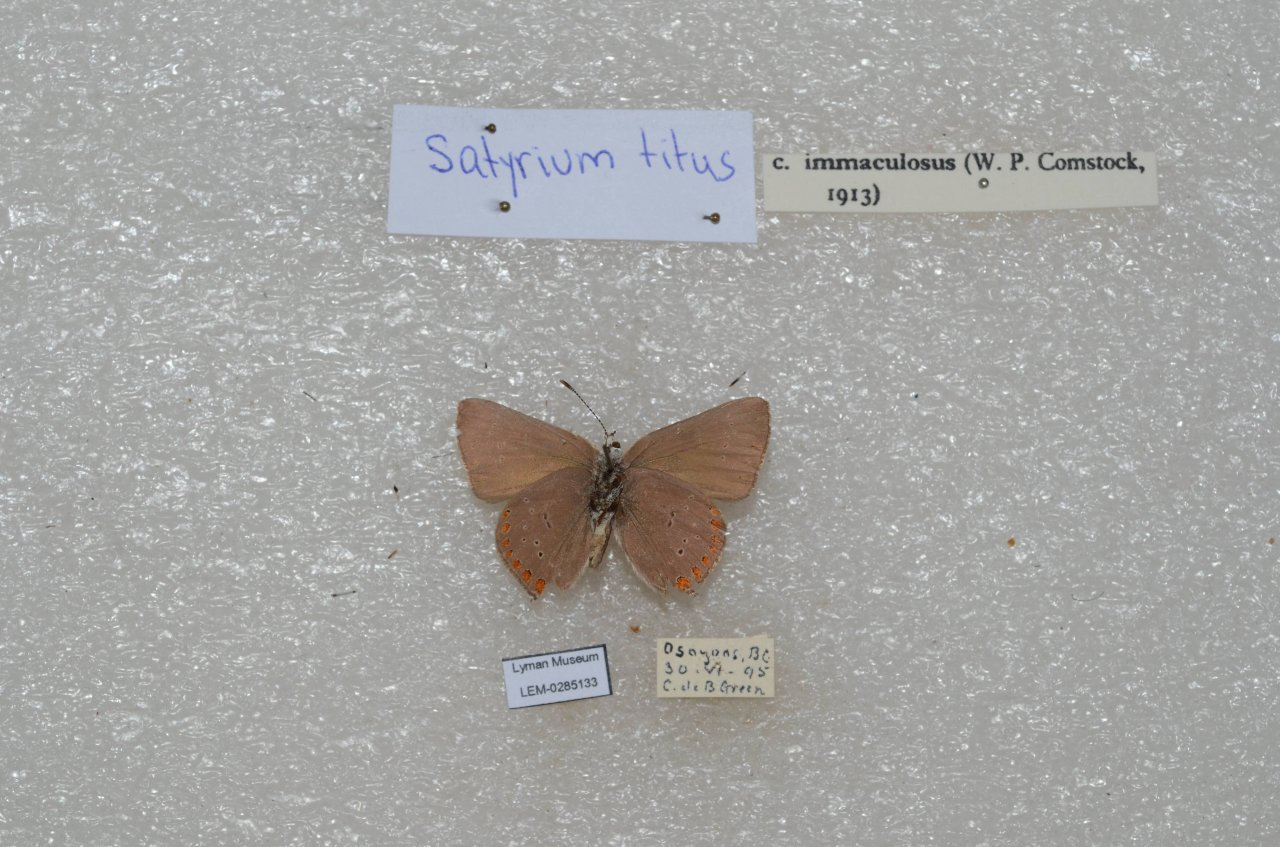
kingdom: Animalia
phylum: Arthropoda
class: Insecta
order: Lepidoptera
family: Lycaenidae
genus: Harkenclenus
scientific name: Harkenclenus titus
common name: Coral Hairstreak
